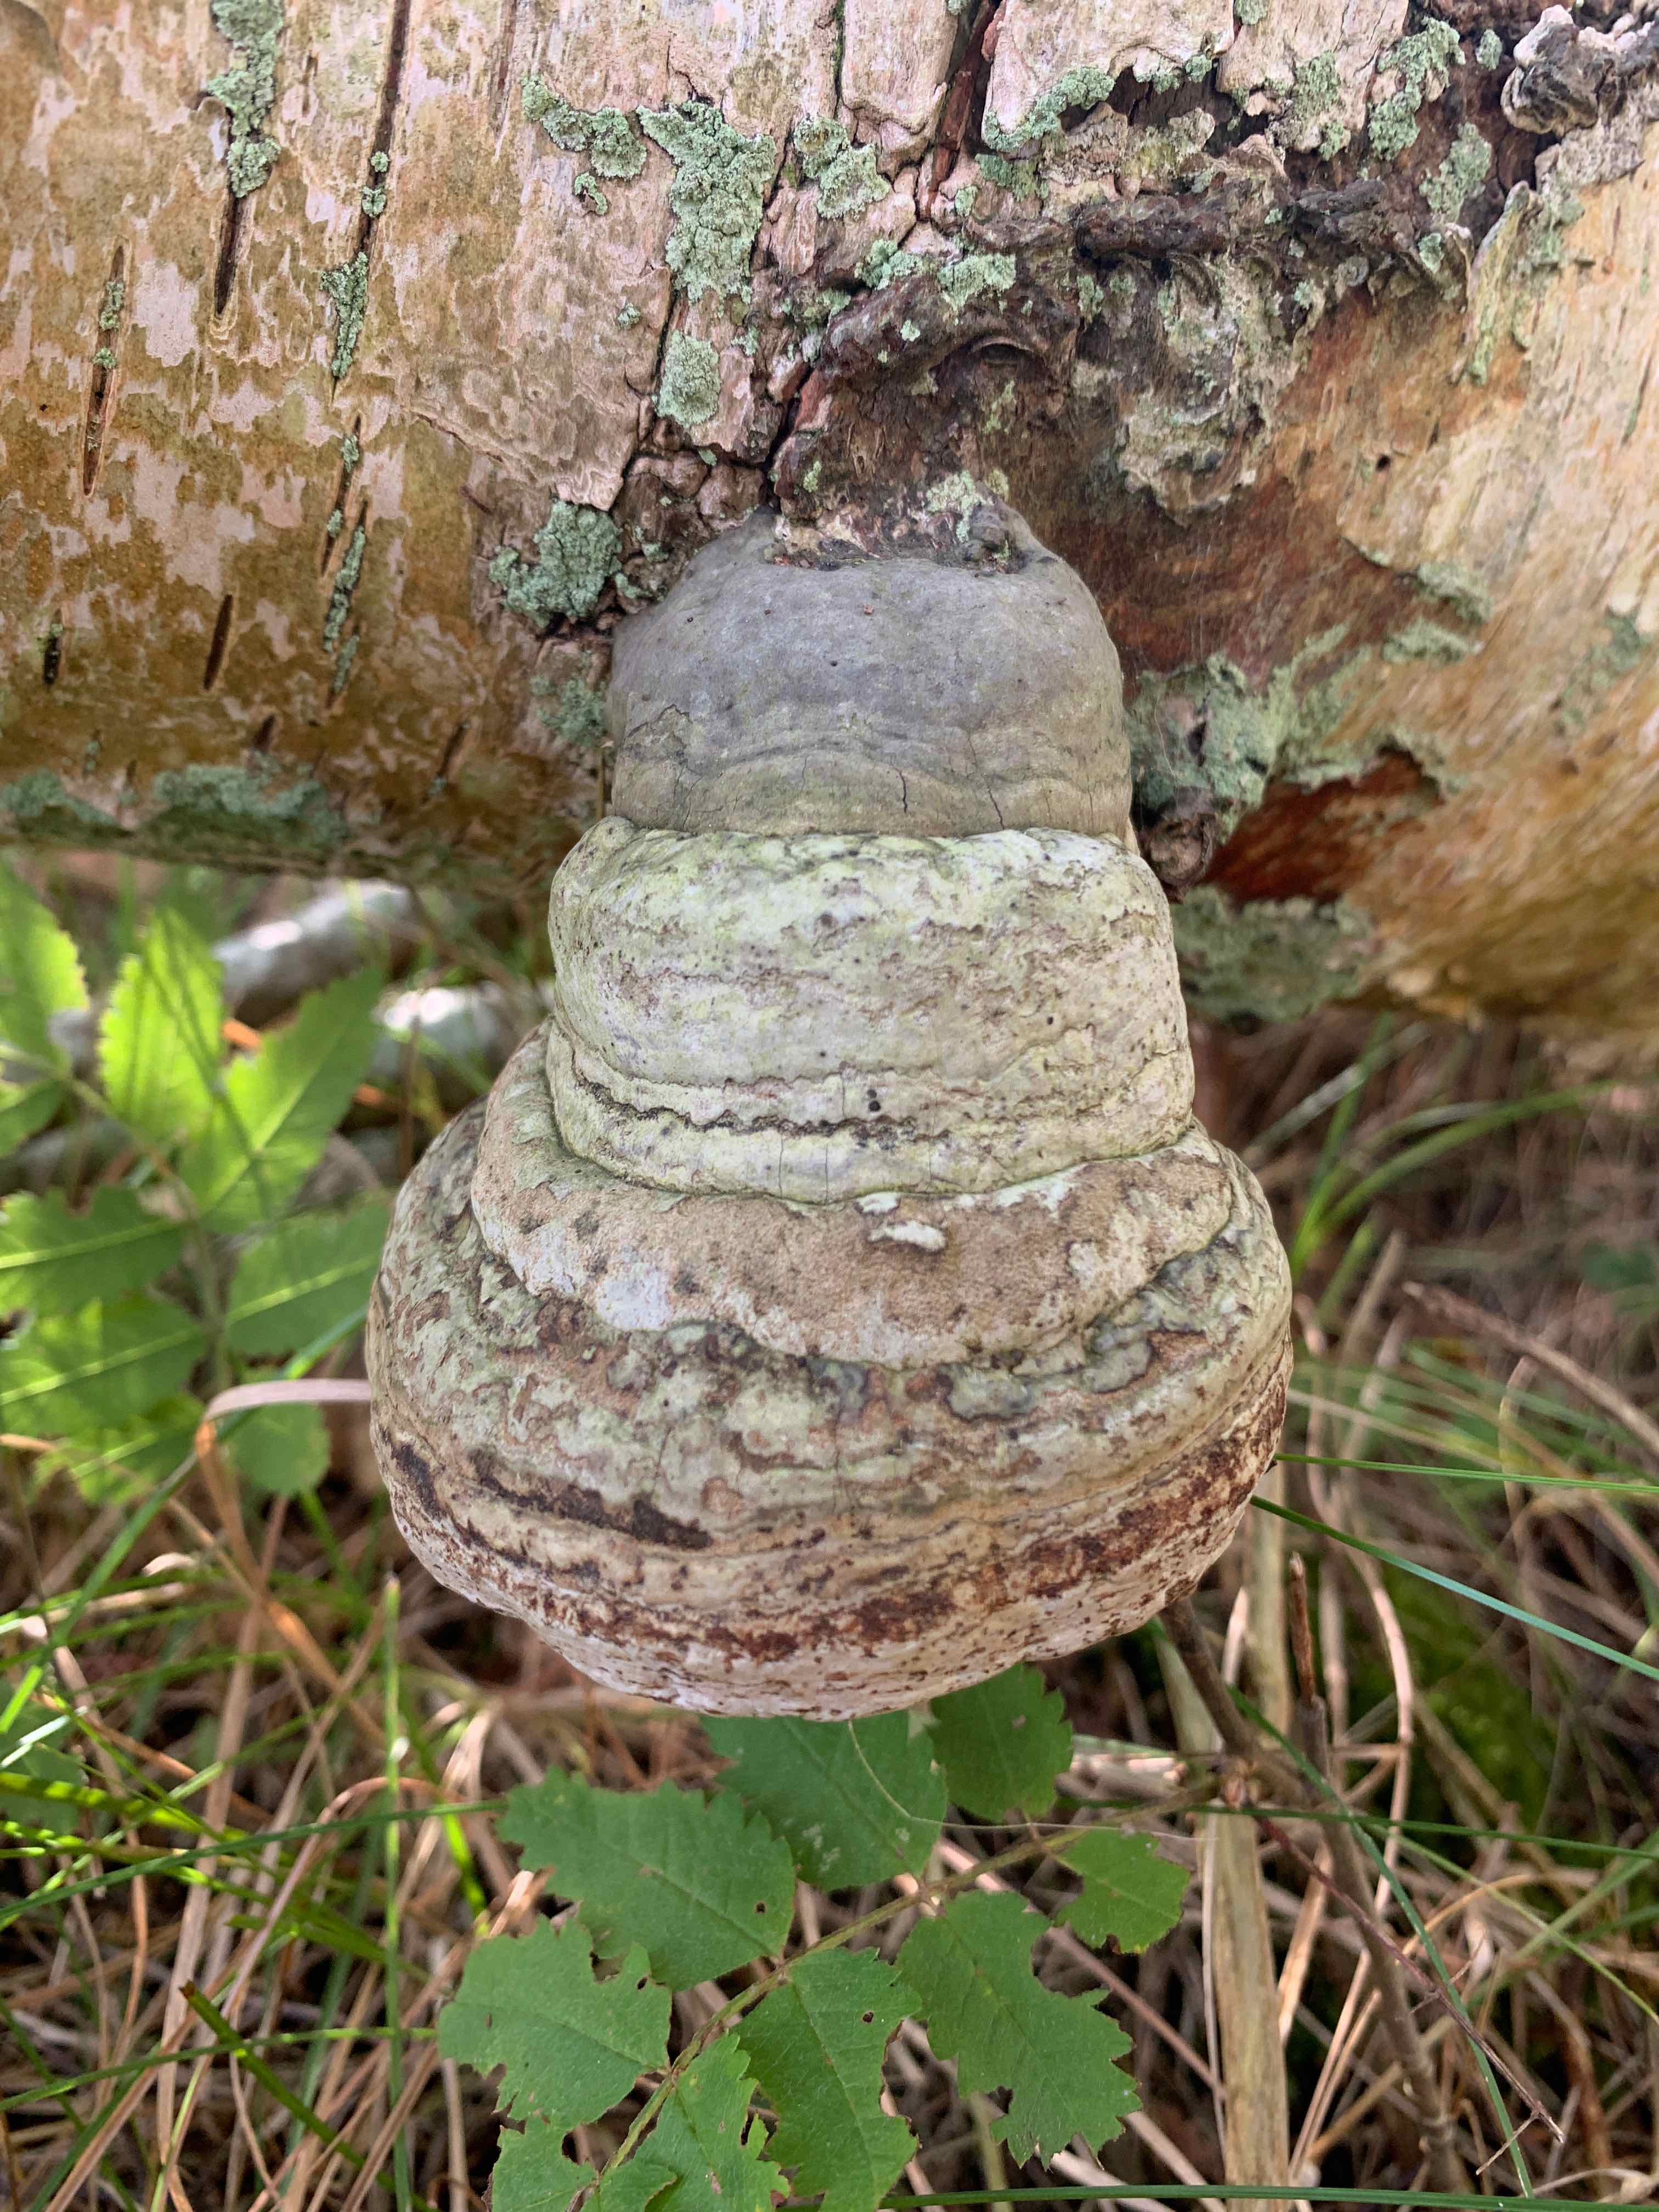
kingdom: Fungi
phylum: Basidiomycota
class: Agaricomycetes
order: Polyporales
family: Polyporaceae
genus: Fomes
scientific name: Fomes fomentarius
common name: tøndersvamp
